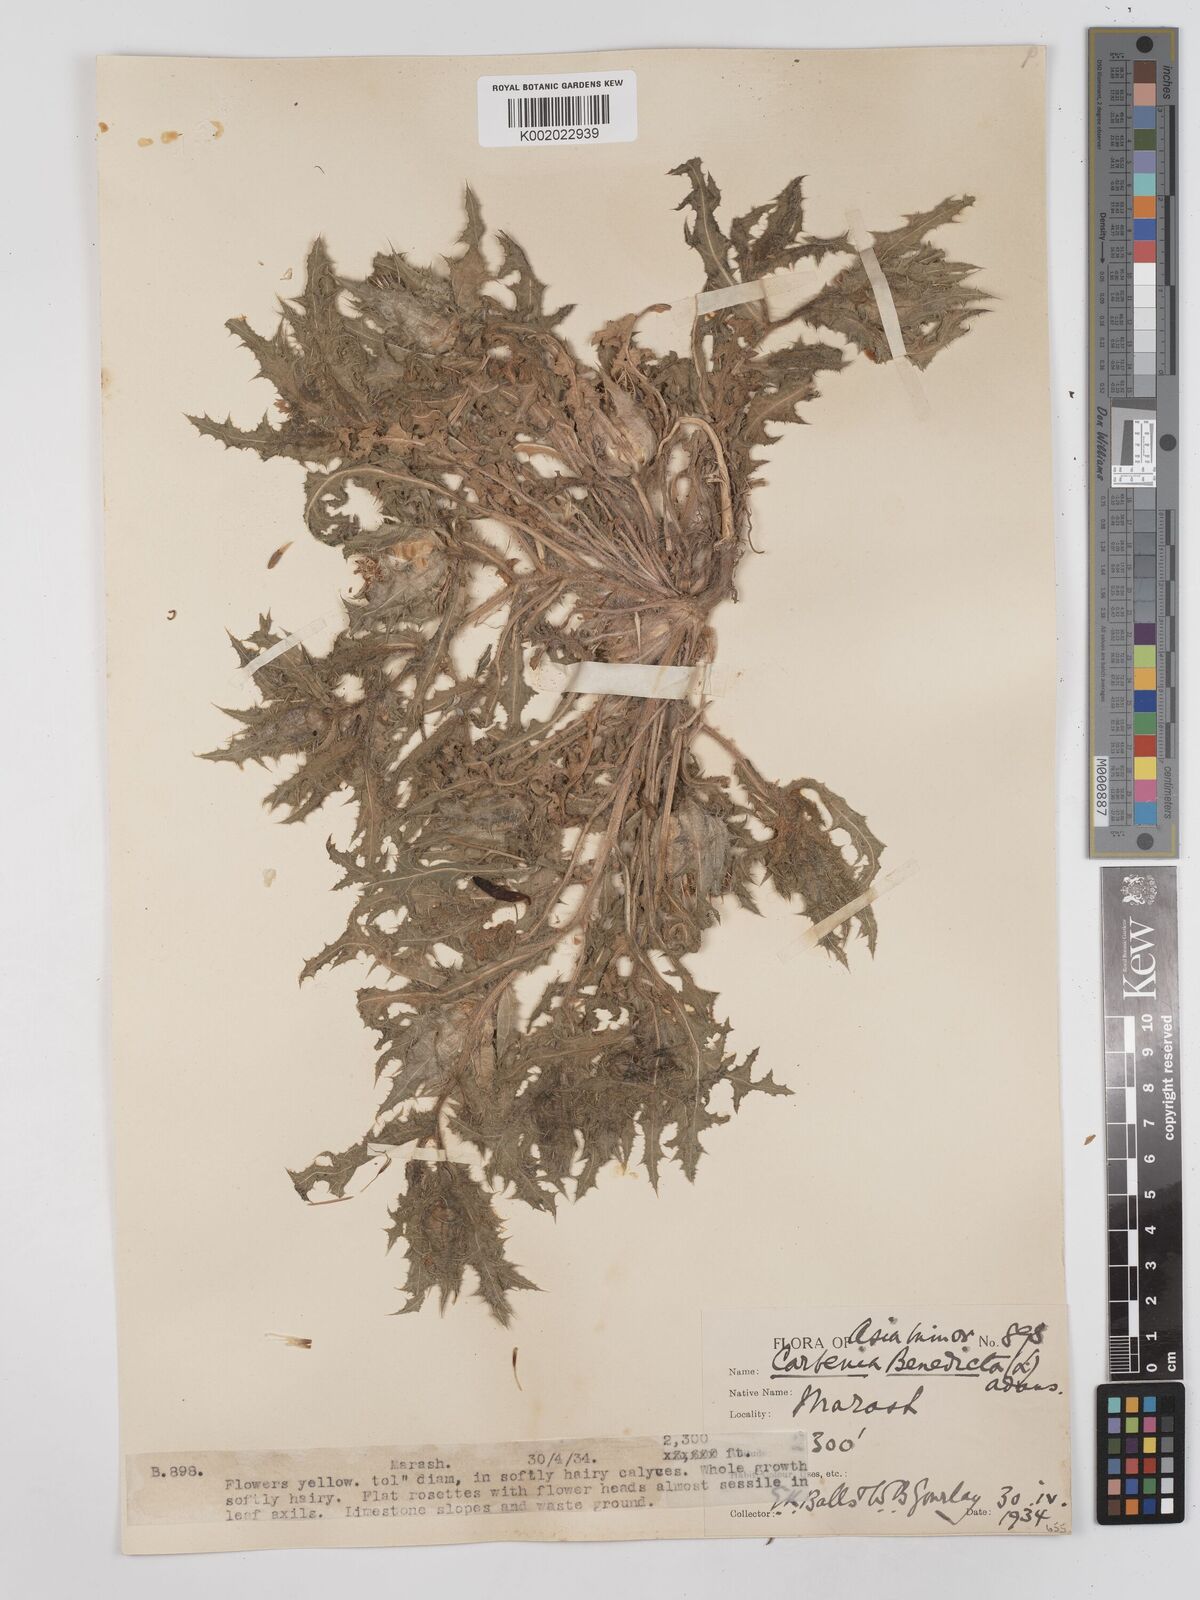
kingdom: Plantae
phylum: Tracheophyta
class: Magnoliopsida
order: Asterales
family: Asteraceae
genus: Centaurea
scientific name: Centaurea benedicta
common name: Blessed thistle
